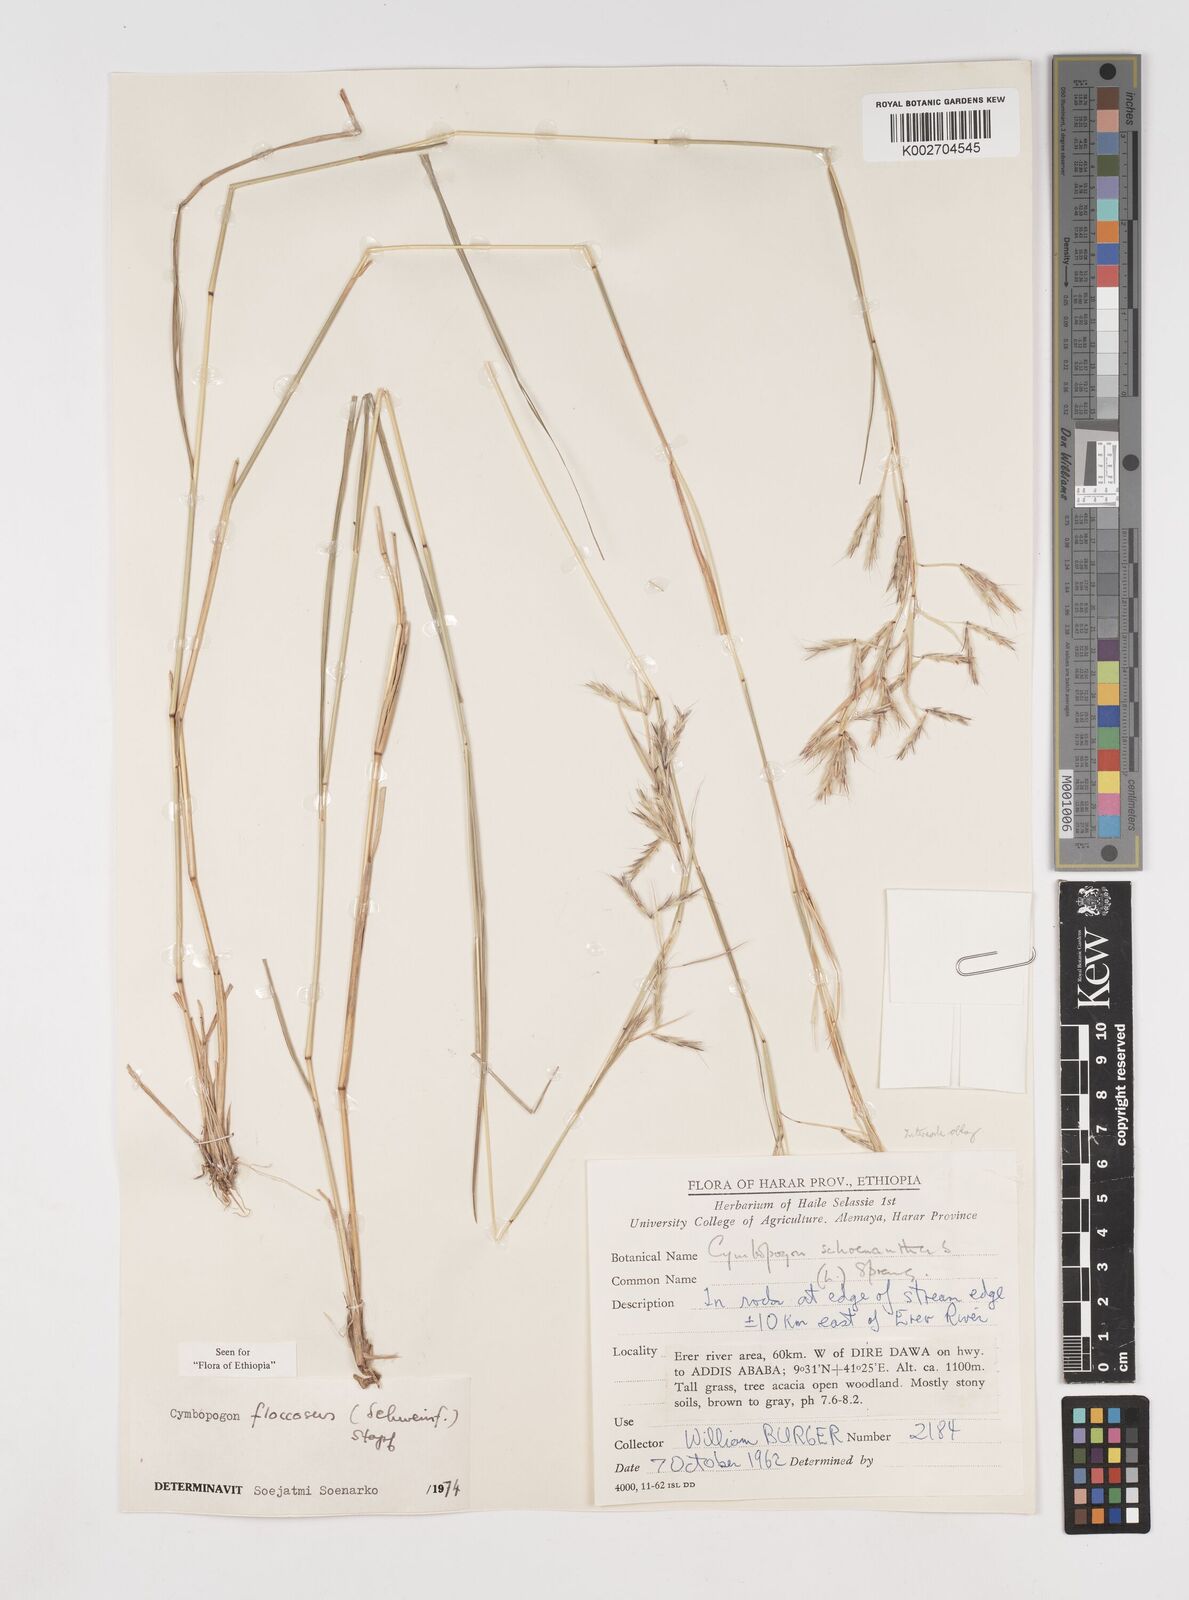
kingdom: Plantae
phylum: Tracheophyta
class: Liliopsida
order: Poales
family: Poaceae
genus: Cymbopogon
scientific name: Cymbopogon
